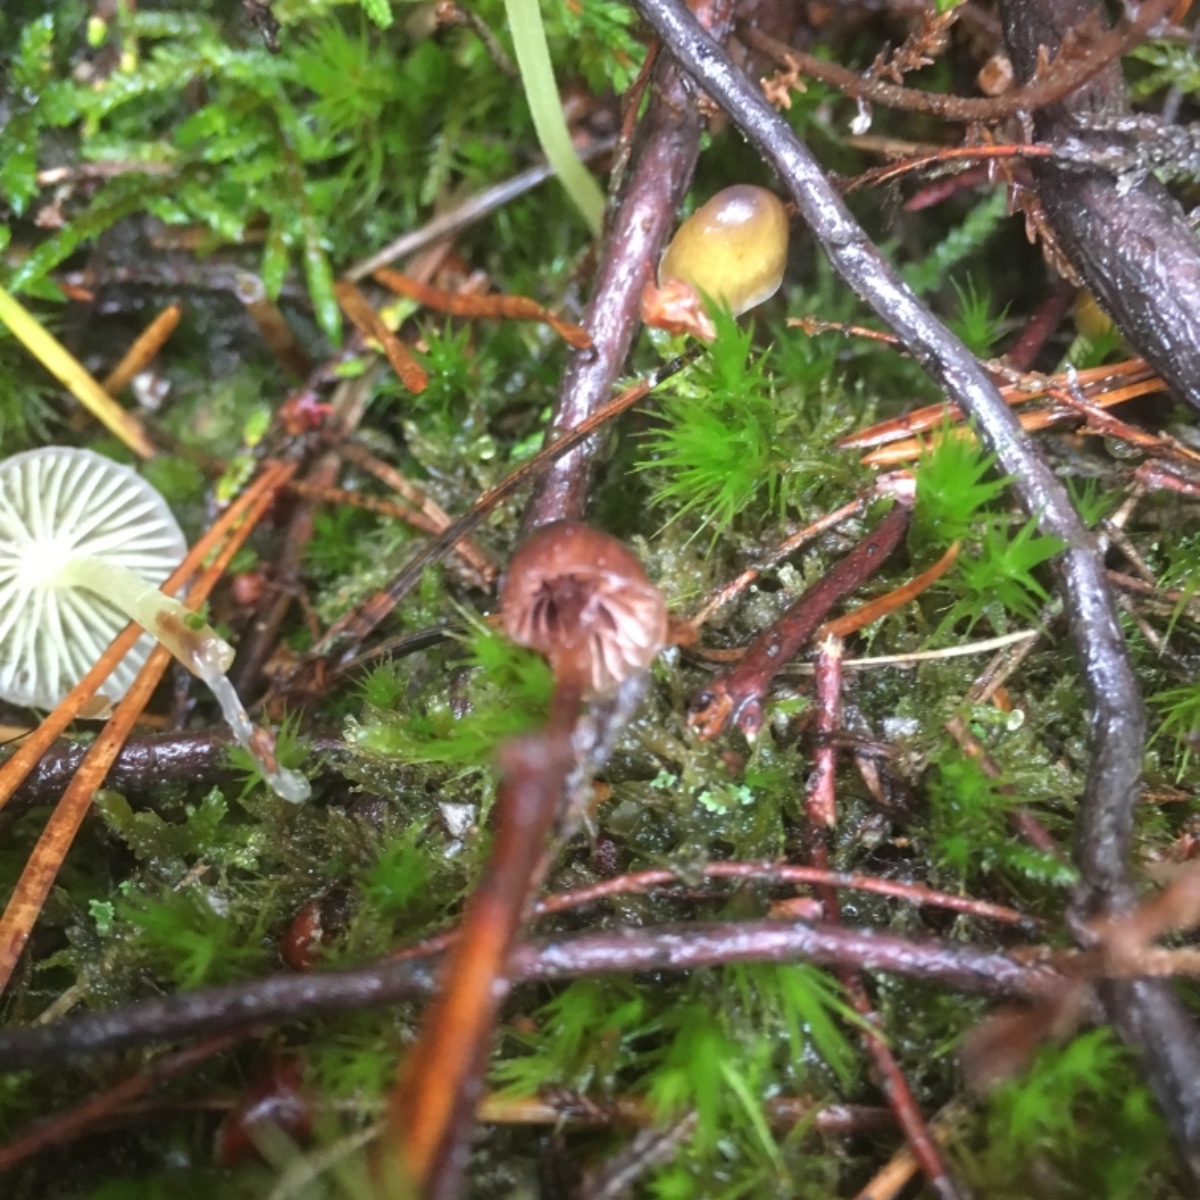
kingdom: Fungi
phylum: Basidiomycota
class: Agaricomycetes
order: Agaricales
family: Mycenaceae
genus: Mycena
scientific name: Mycena epipterygia
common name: gulstokket huesvamp
